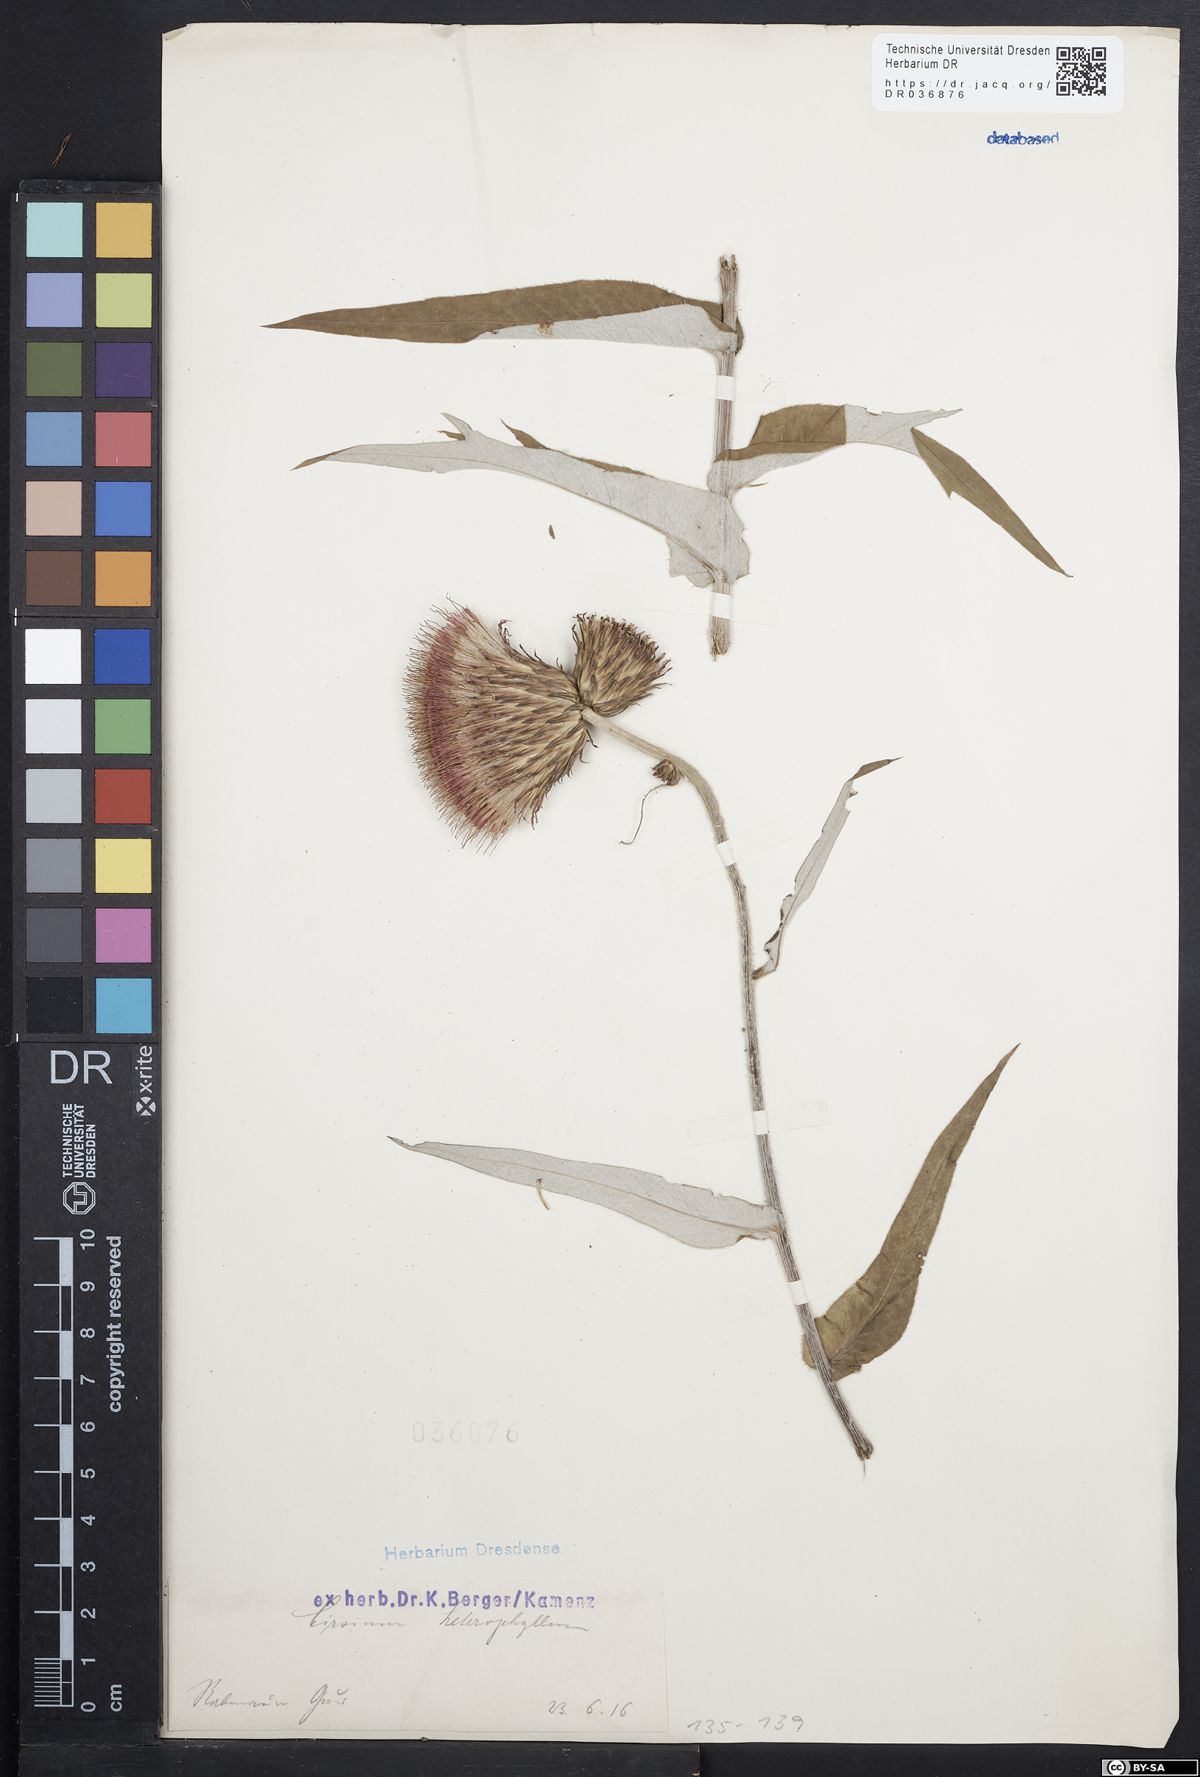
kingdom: Plantae
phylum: Tracheophyta
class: Magnoliopsida
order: Asterales
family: Asteraceae
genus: Cirsium
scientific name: Cirsium helenioides
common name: Melancholy thistle
